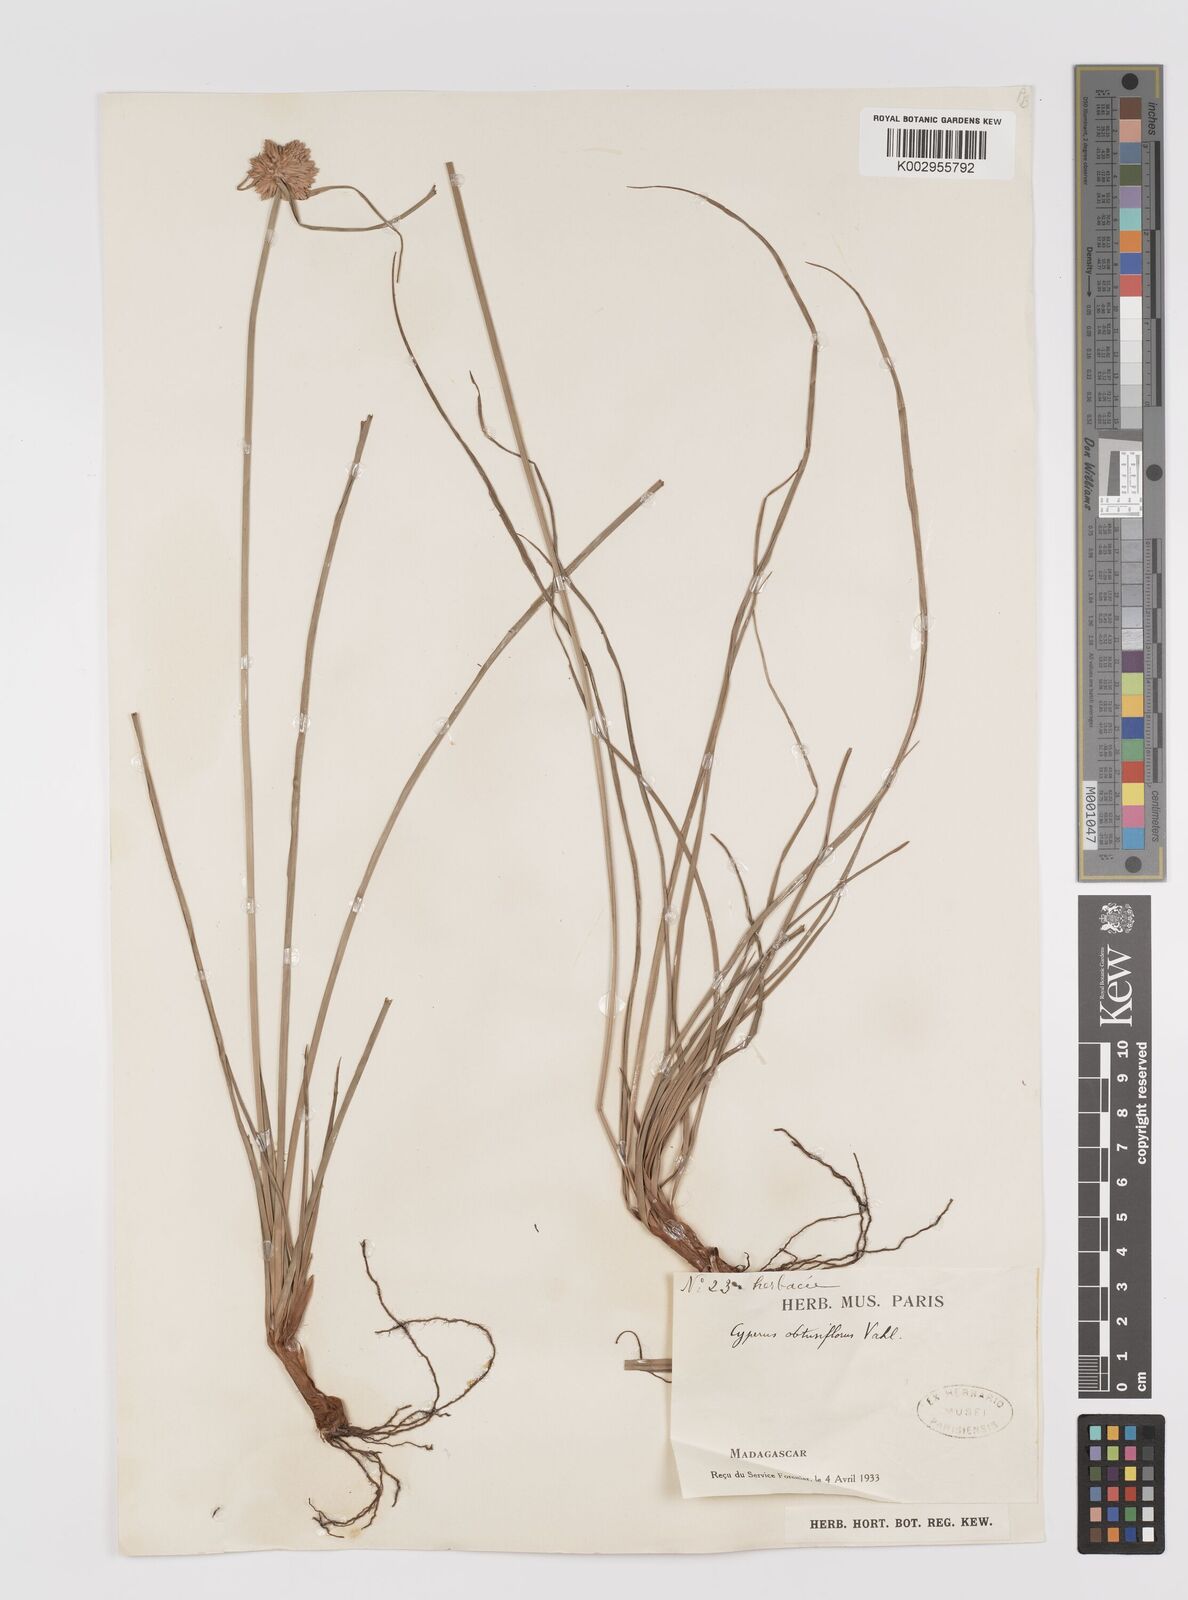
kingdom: Plantae
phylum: Tracheophyta
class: Liliopsida
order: Poales
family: Cyperaceae
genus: Cyperus
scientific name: Cyperus niveus
